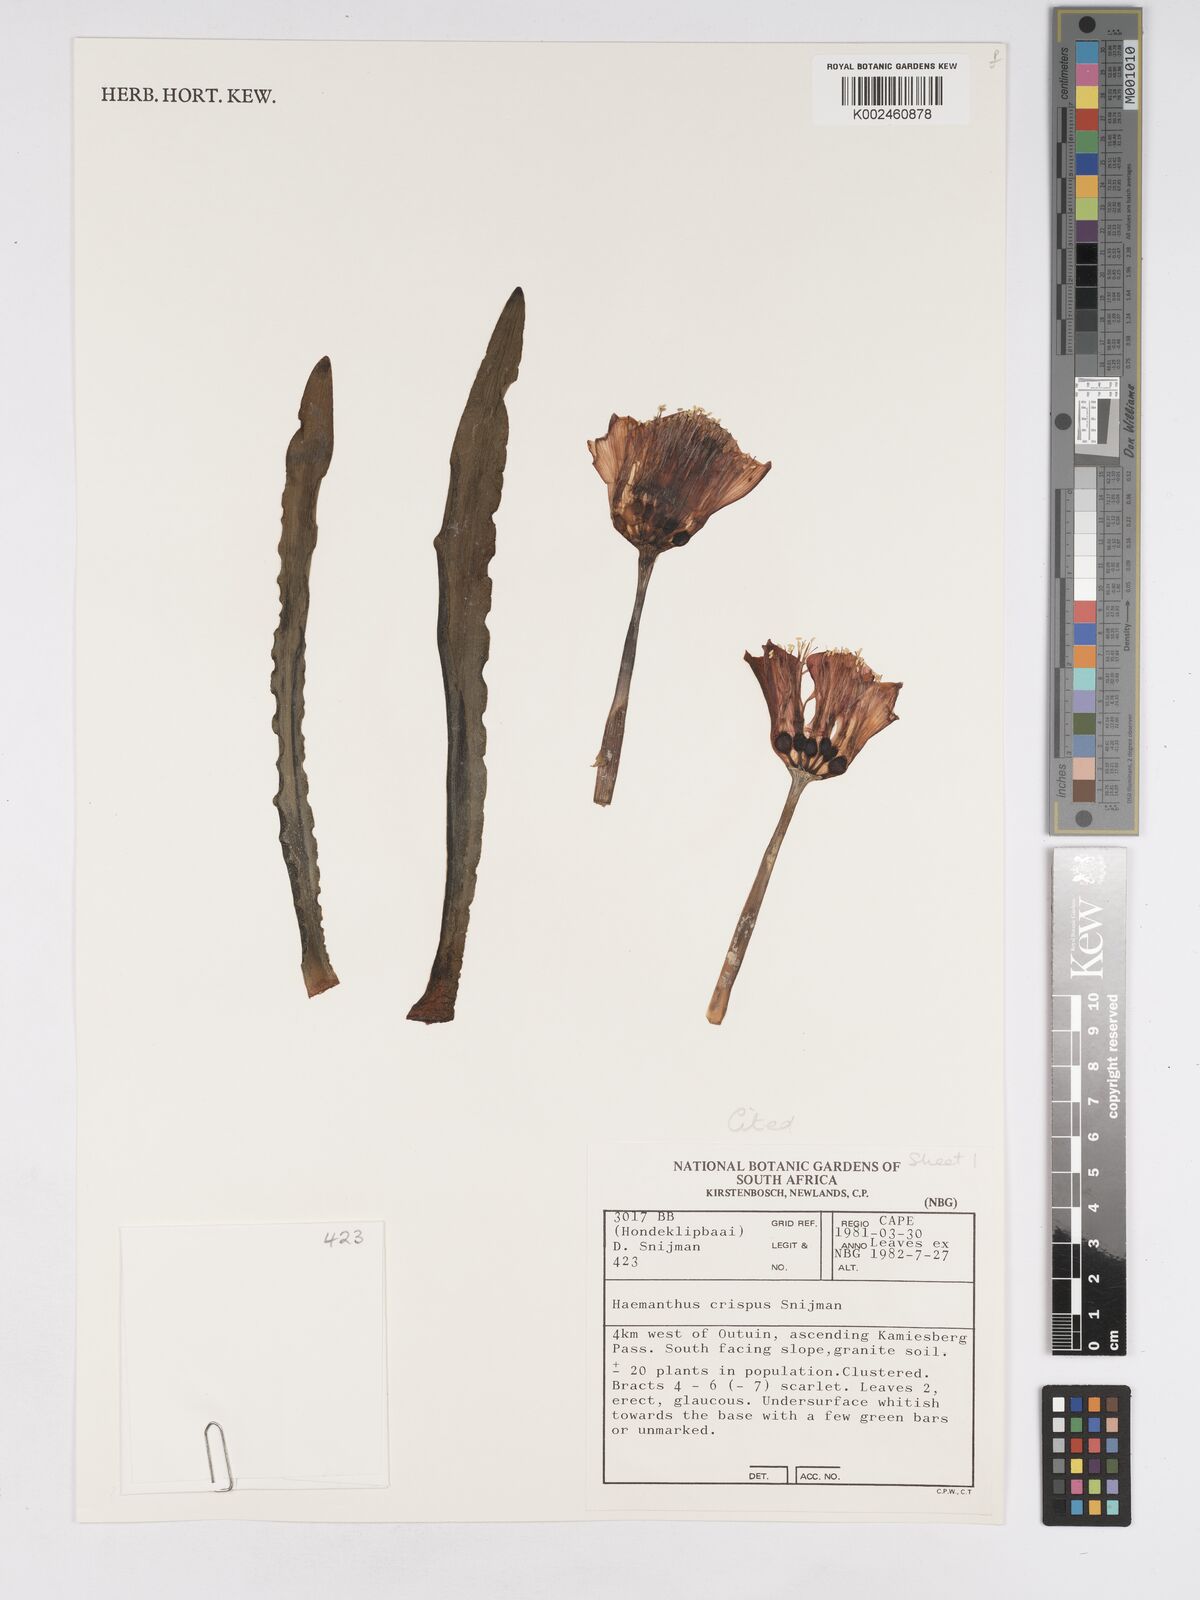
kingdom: Plantae
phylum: Tracheophyta
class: Liliopsida
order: Asparagales
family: Amaryllidaceae
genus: Haemanthus
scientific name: Haemanthus crispus
